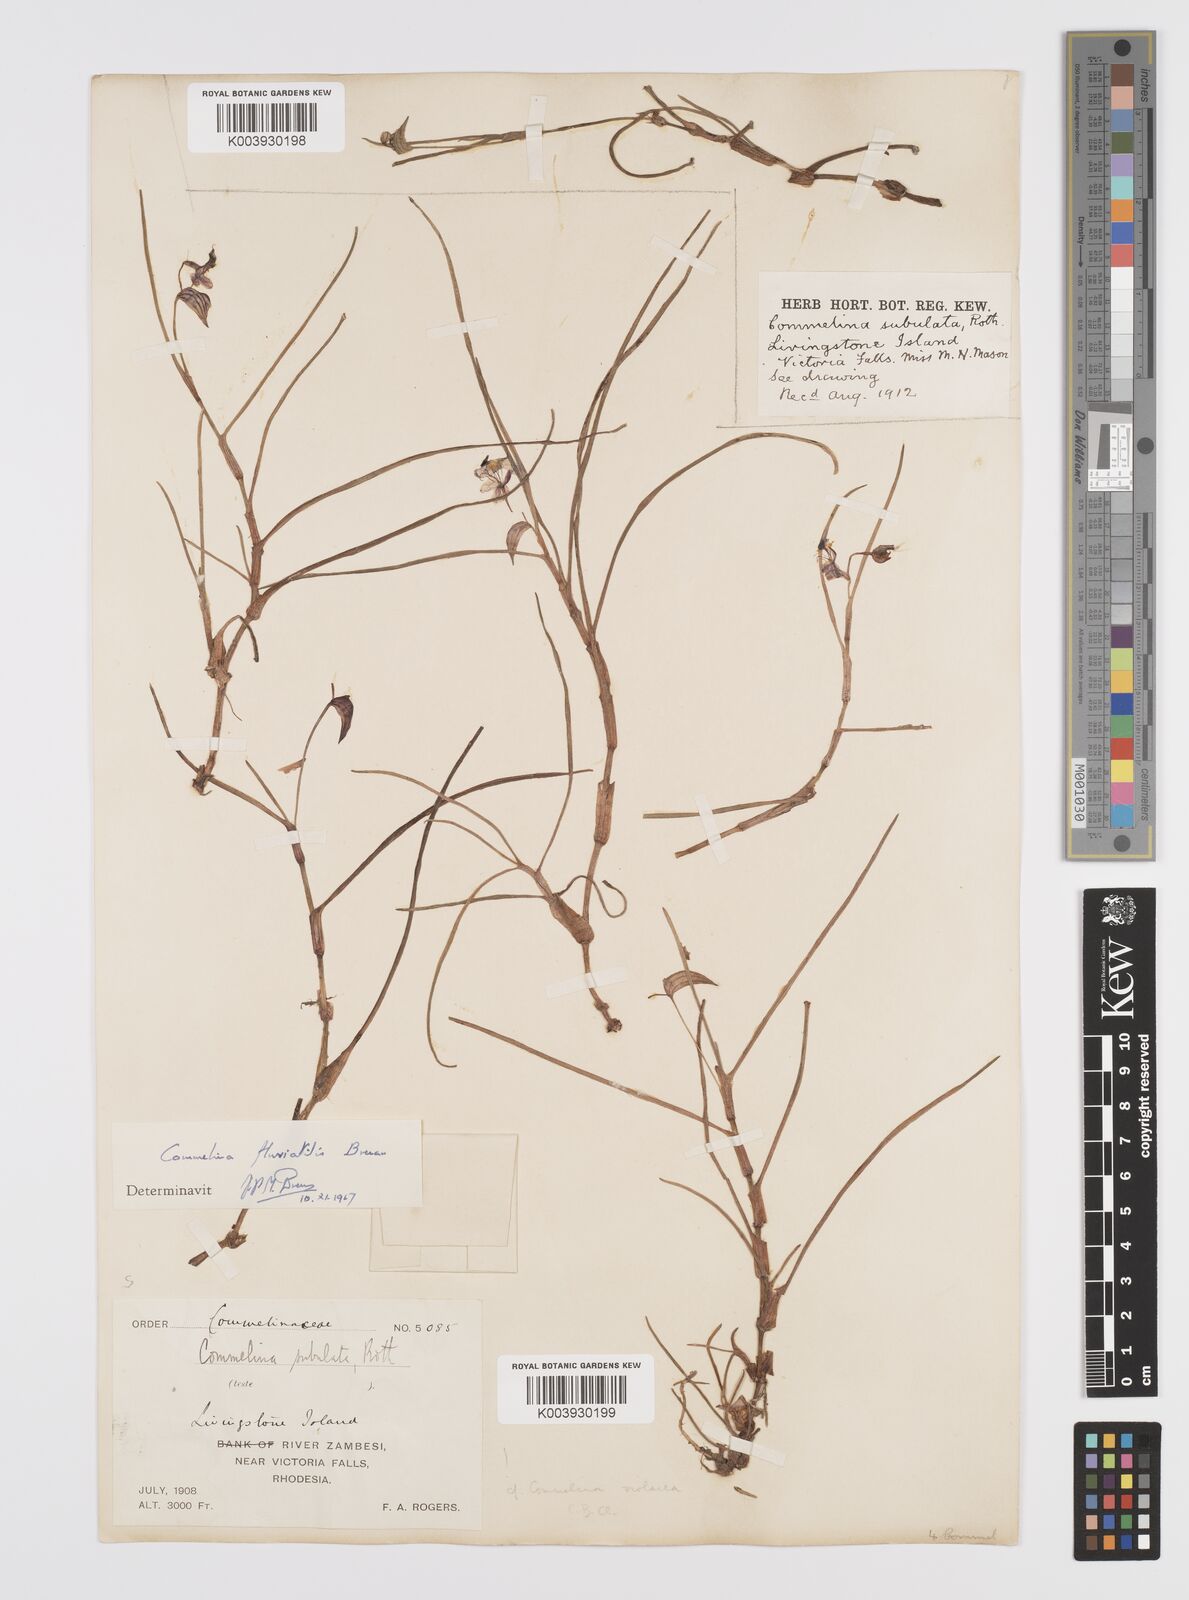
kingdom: Plantae
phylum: Tracheophyta
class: Liliopsida
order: Commelinales
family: Commelinaceae
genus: Commelina
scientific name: Commelina fluviatilis
